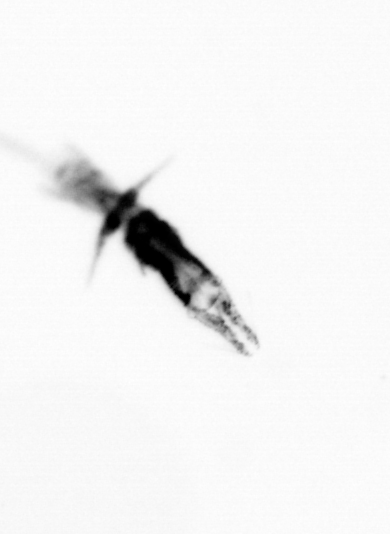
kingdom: Animalia
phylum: Arthropoda
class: Copepoda
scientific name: Copepoda
